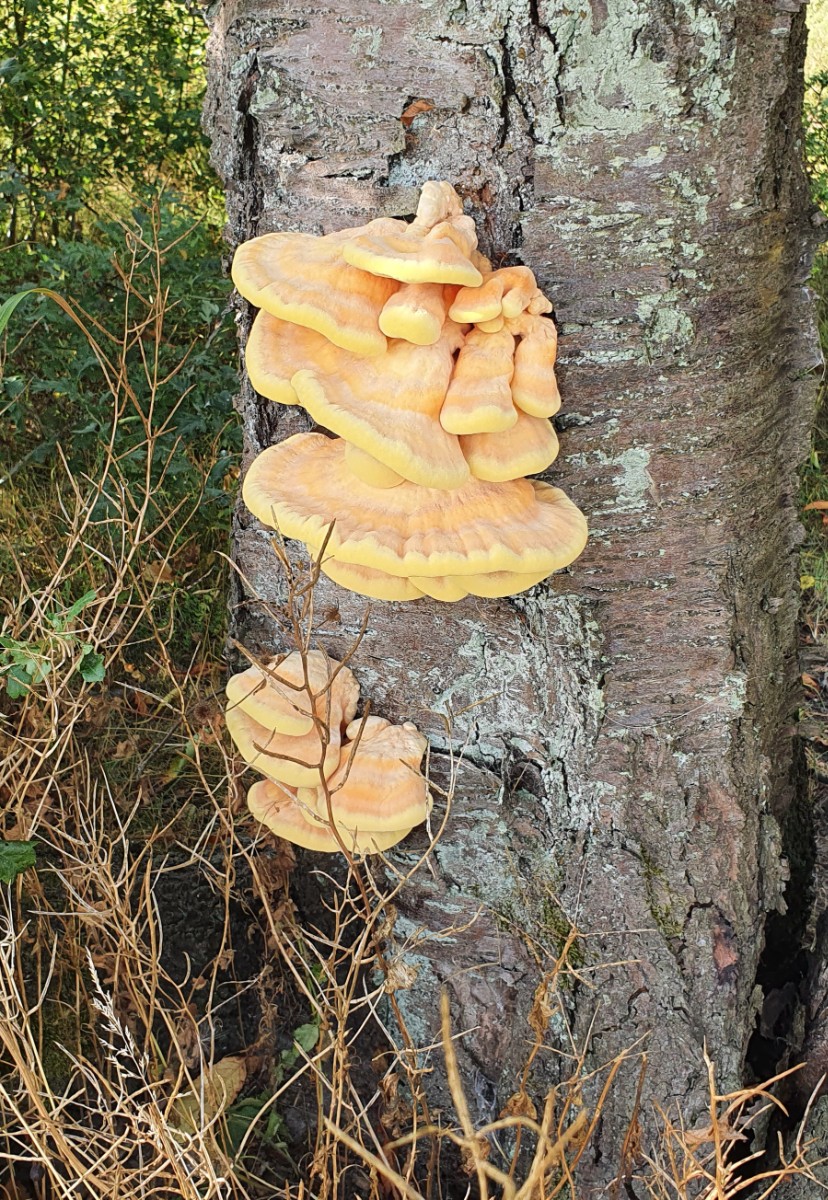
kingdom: Fungi
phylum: Basidiomycota
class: Agaricomycetes
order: Polyporales
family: Laetiporaceae
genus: Laetiporus
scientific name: Laetiporus sulphureus
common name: svovlporesvamp
